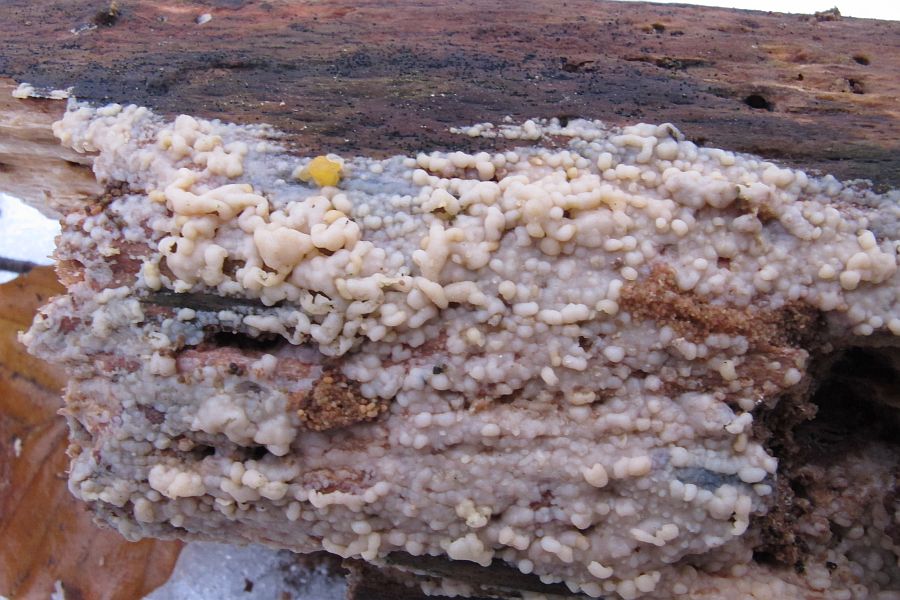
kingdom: Fungi
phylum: Basidiomycota
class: Microbotryomycetes
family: Colacogloeaceae
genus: Colacogloea
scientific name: Colacogloea effusa
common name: klar slimklat
